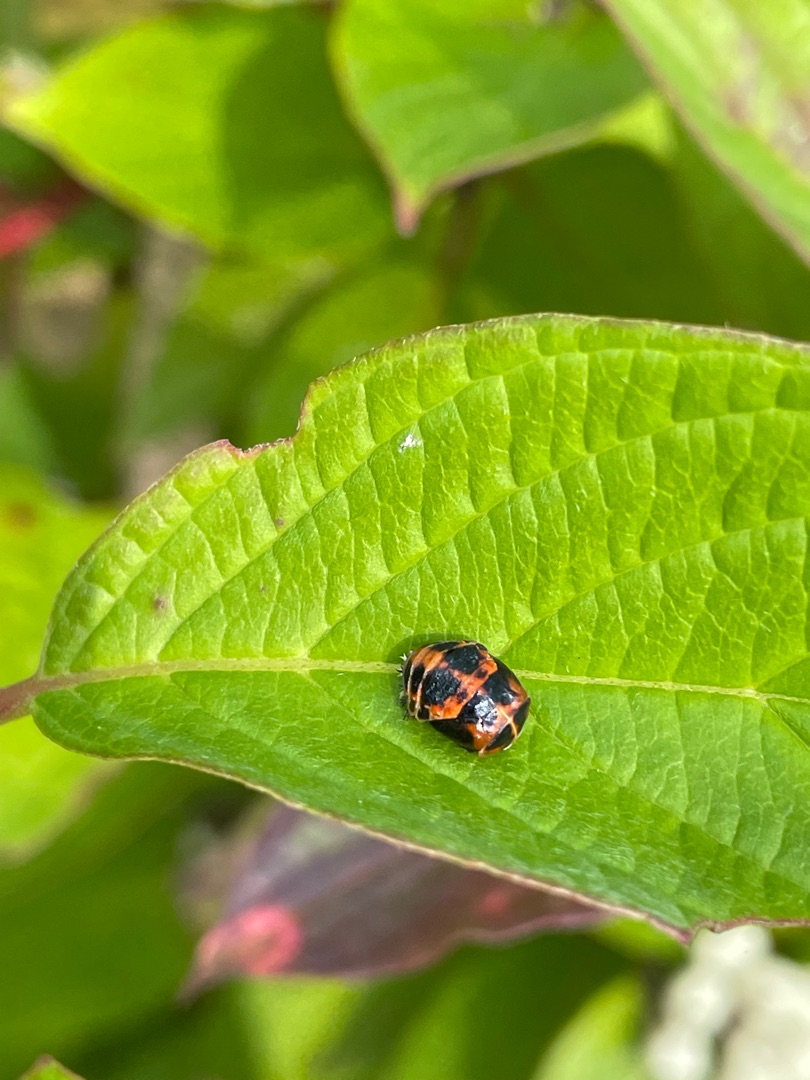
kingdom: Animalia
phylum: Arthropoda
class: Insecta
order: Coleoptera
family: Coccinellidae
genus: Harmonia
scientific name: Harmonia axyridis
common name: Harlekinmariehøne
